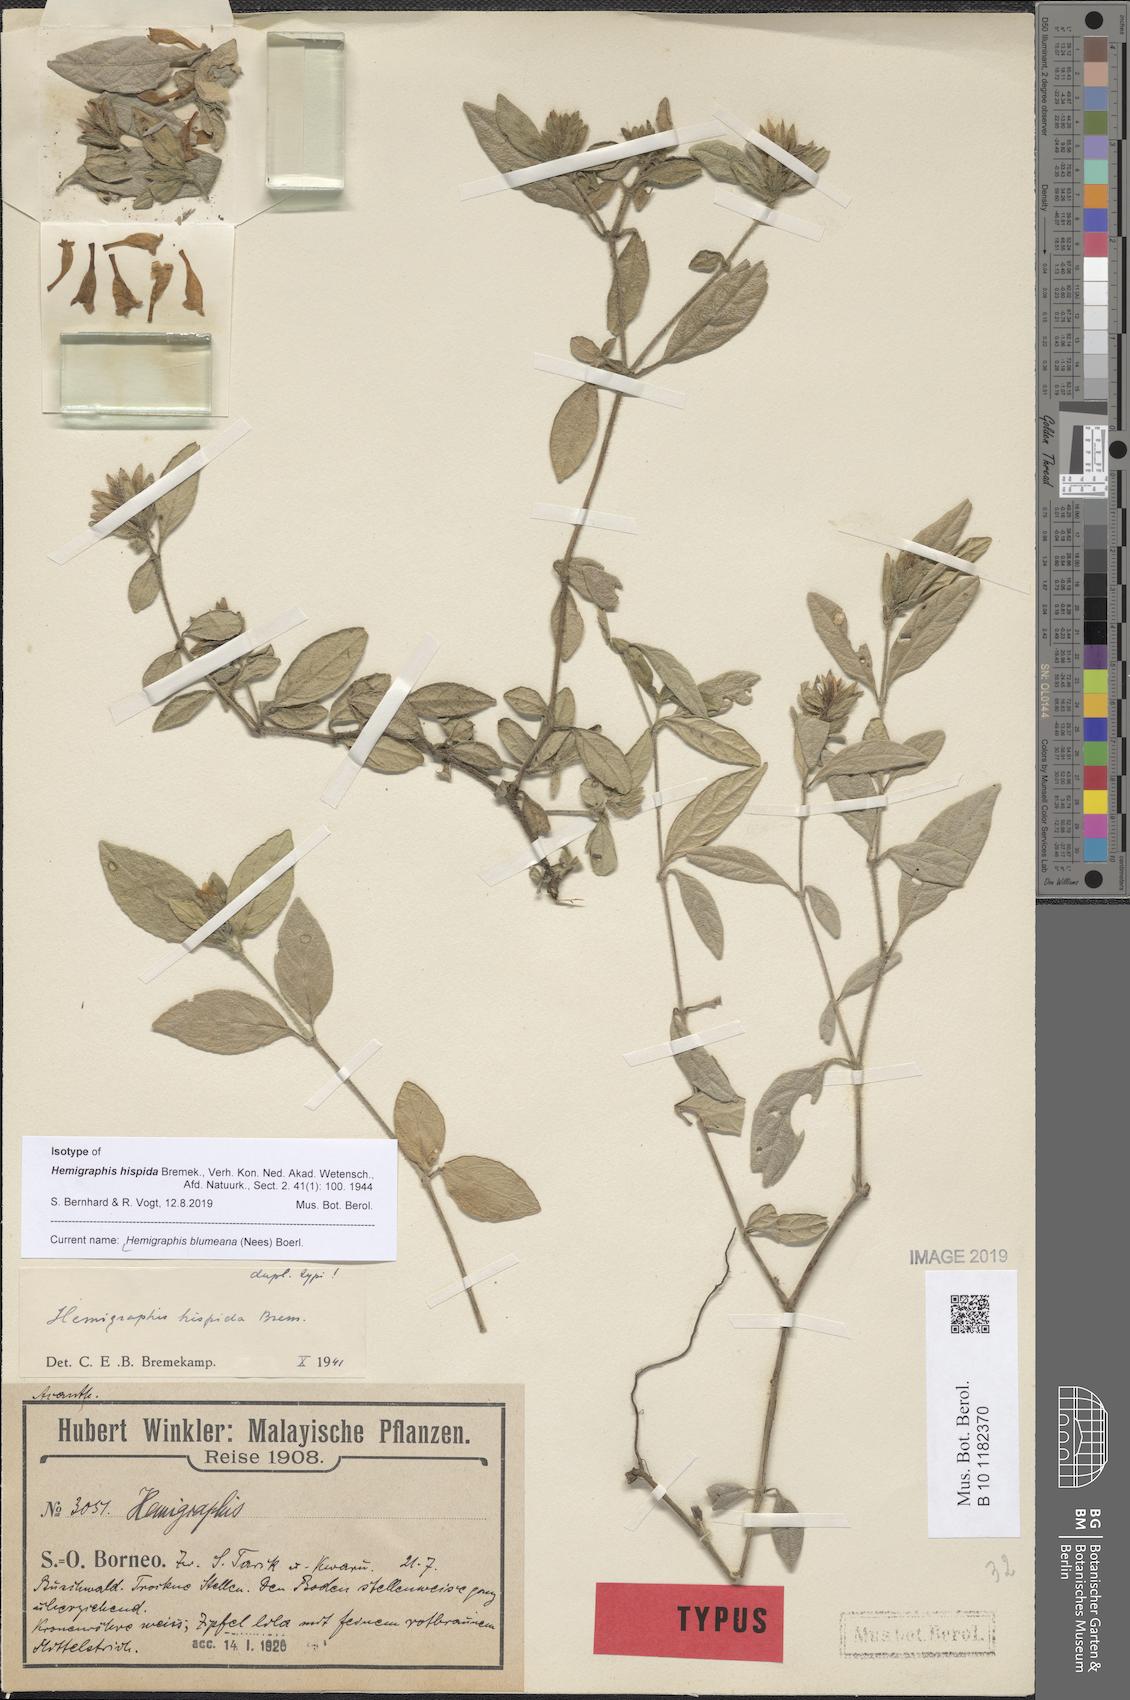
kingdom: Plantae
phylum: Tracheophyta
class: Magnoliopsida
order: Lamiales
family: Acanthaceae
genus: Strobilanthes
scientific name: Strobilanthes blumeana
